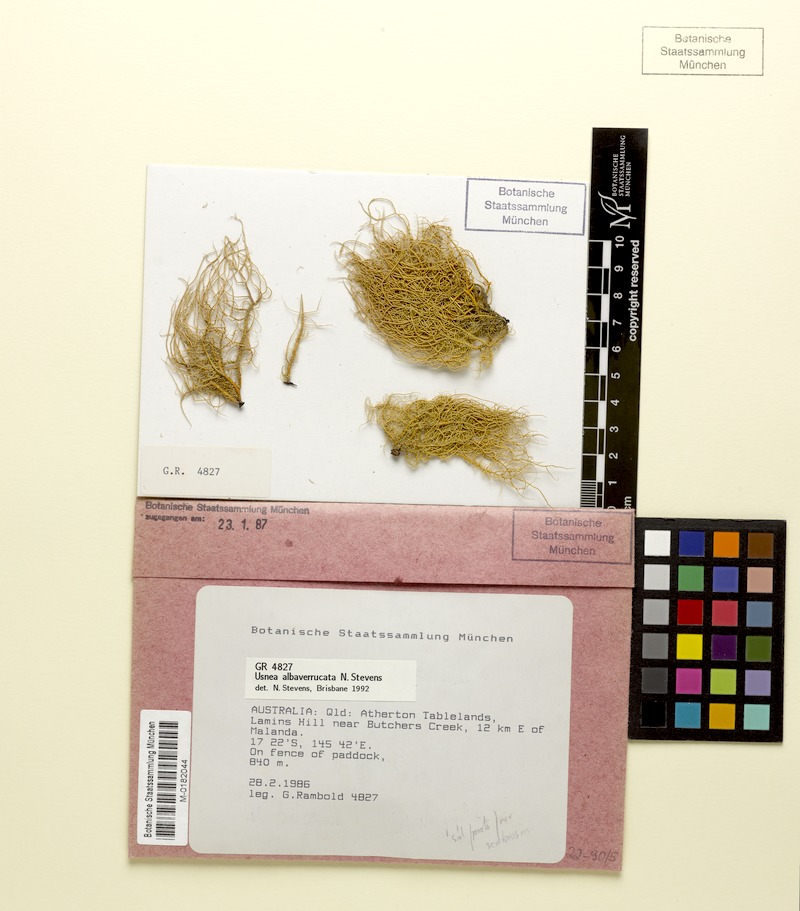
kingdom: Fungi
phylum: Ascomycota
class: Lecanoromycetes
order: Lecanorales
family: Parmeliaceae
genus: Usnea
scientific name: Usnea alboverrucata
